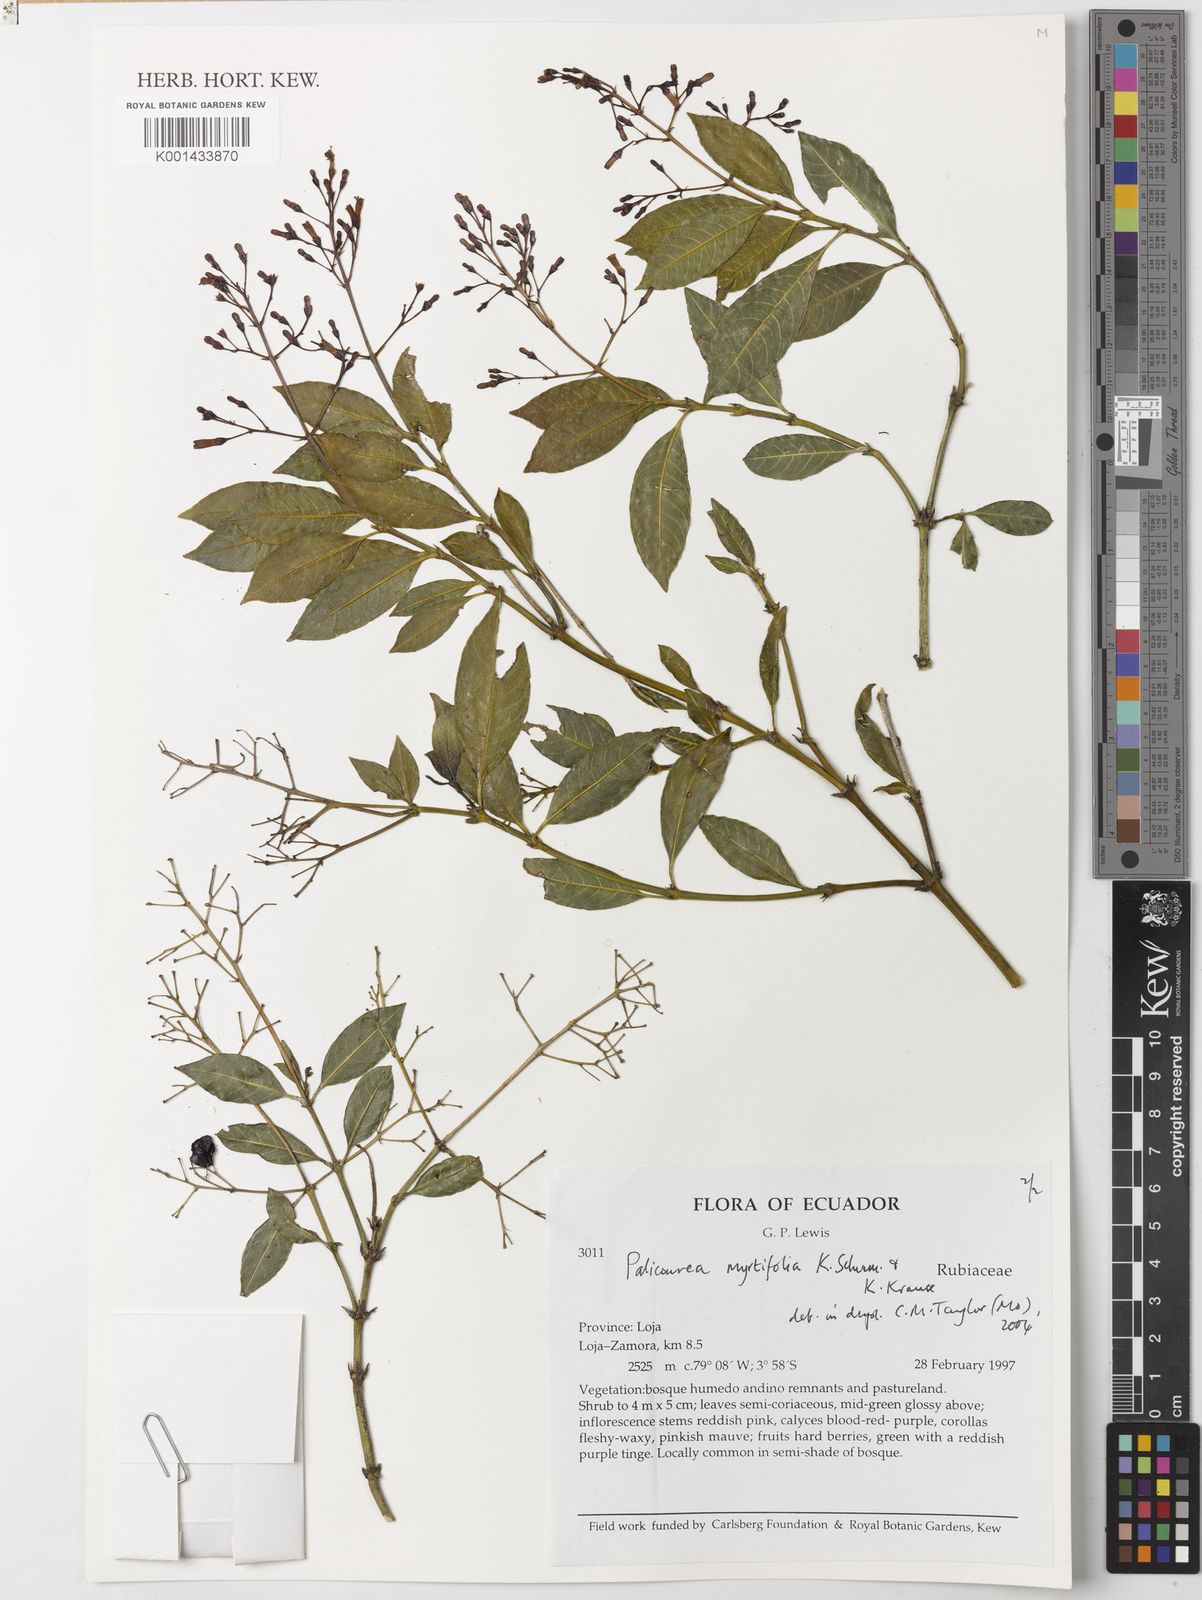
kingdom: Plantae
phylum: Tracheophyta
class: Magnoliopsida
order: Gentianales
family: Rubiaceae
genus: Palicourea
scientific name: Palicourea myrtifolia
